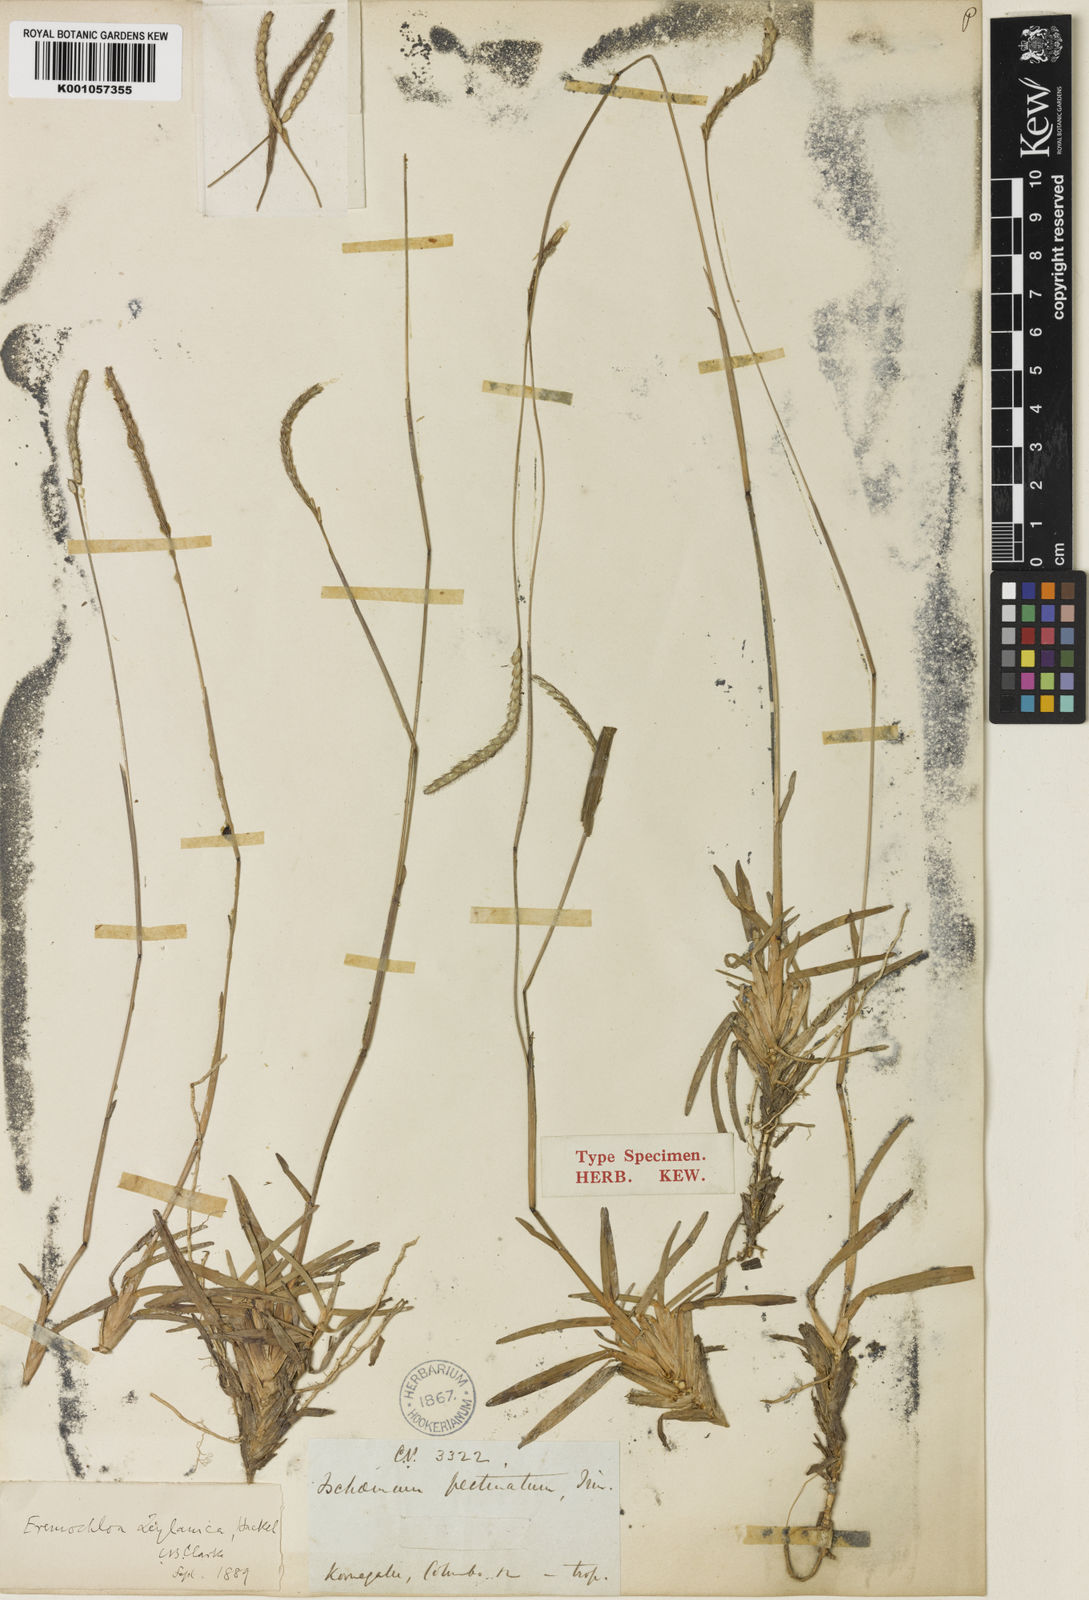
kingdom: Plantae
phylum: Tracheophyta
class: Liliopsida
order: Poales
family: Poaceae
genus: Eremochloa
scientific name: Eremochloa zeylanica
